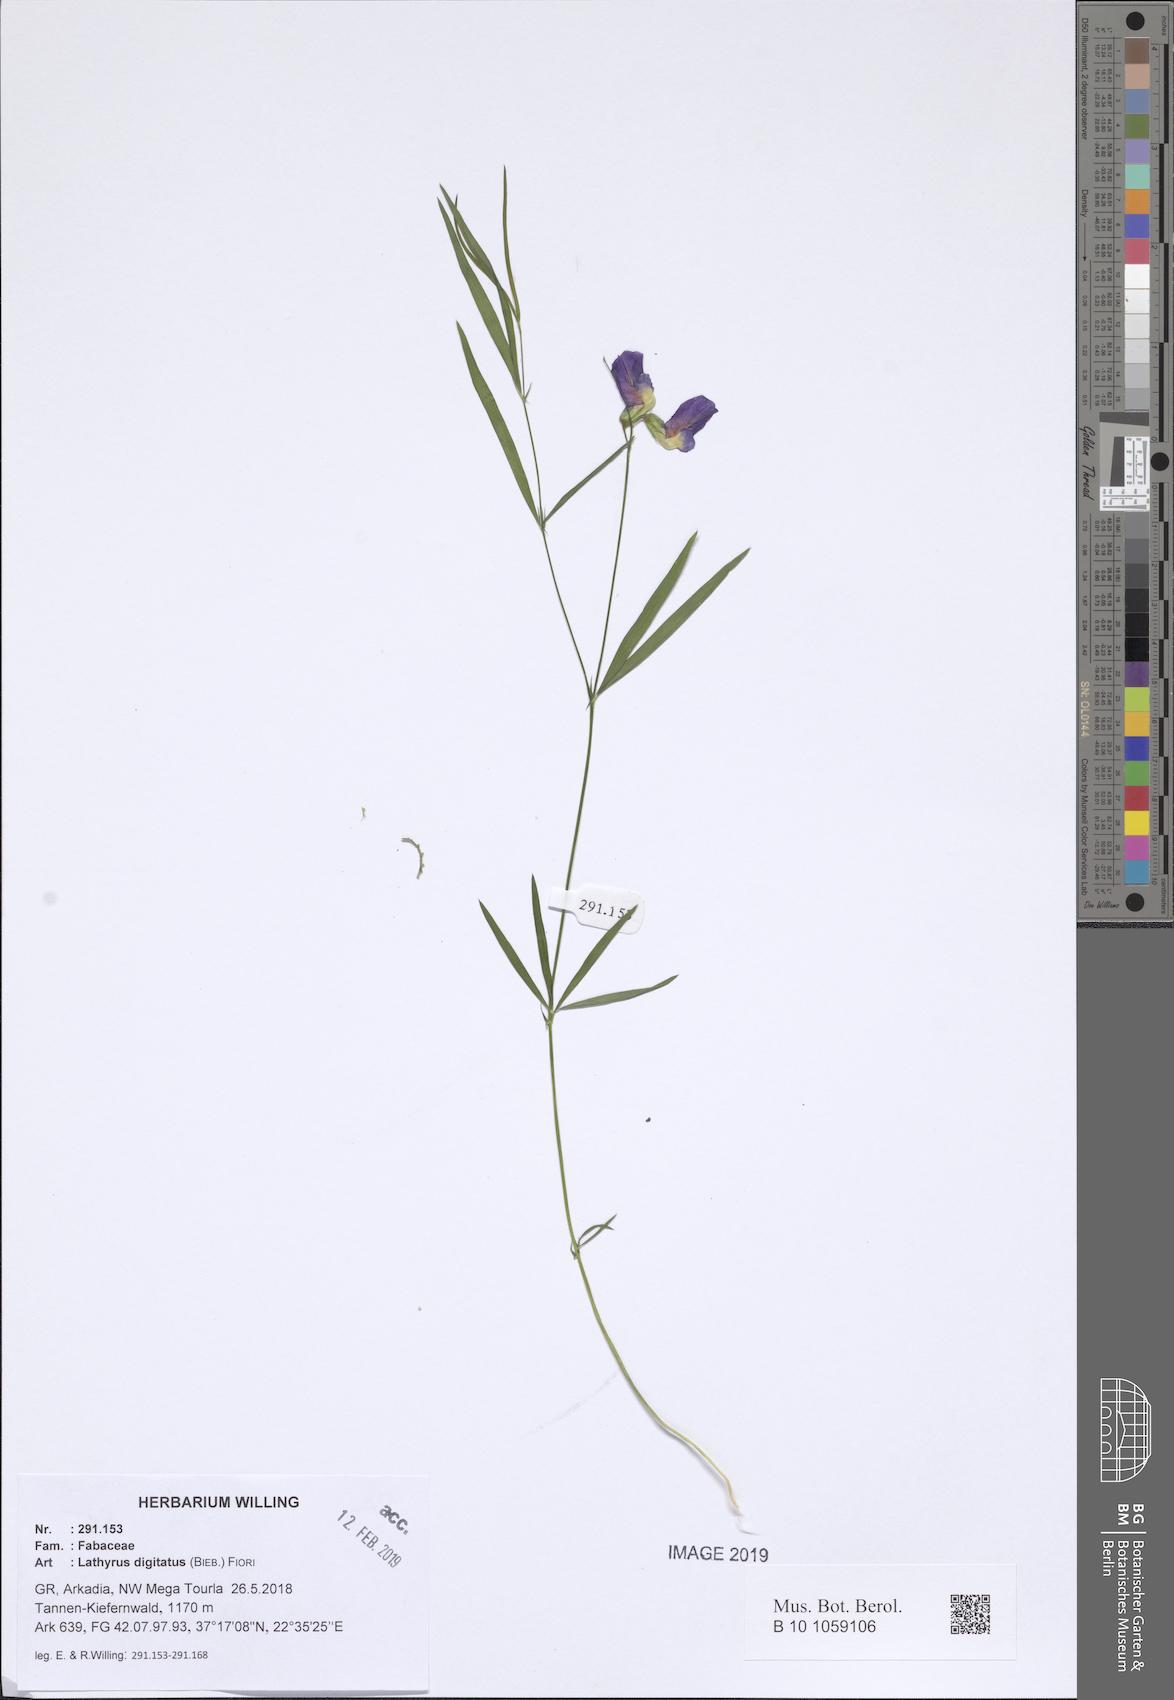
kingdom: Plantae
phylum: Tracheophyta
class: Magnoliopsida
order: Fabales
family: Fabaceae
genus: Lathyrus
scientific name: Lathyrus digitatus
